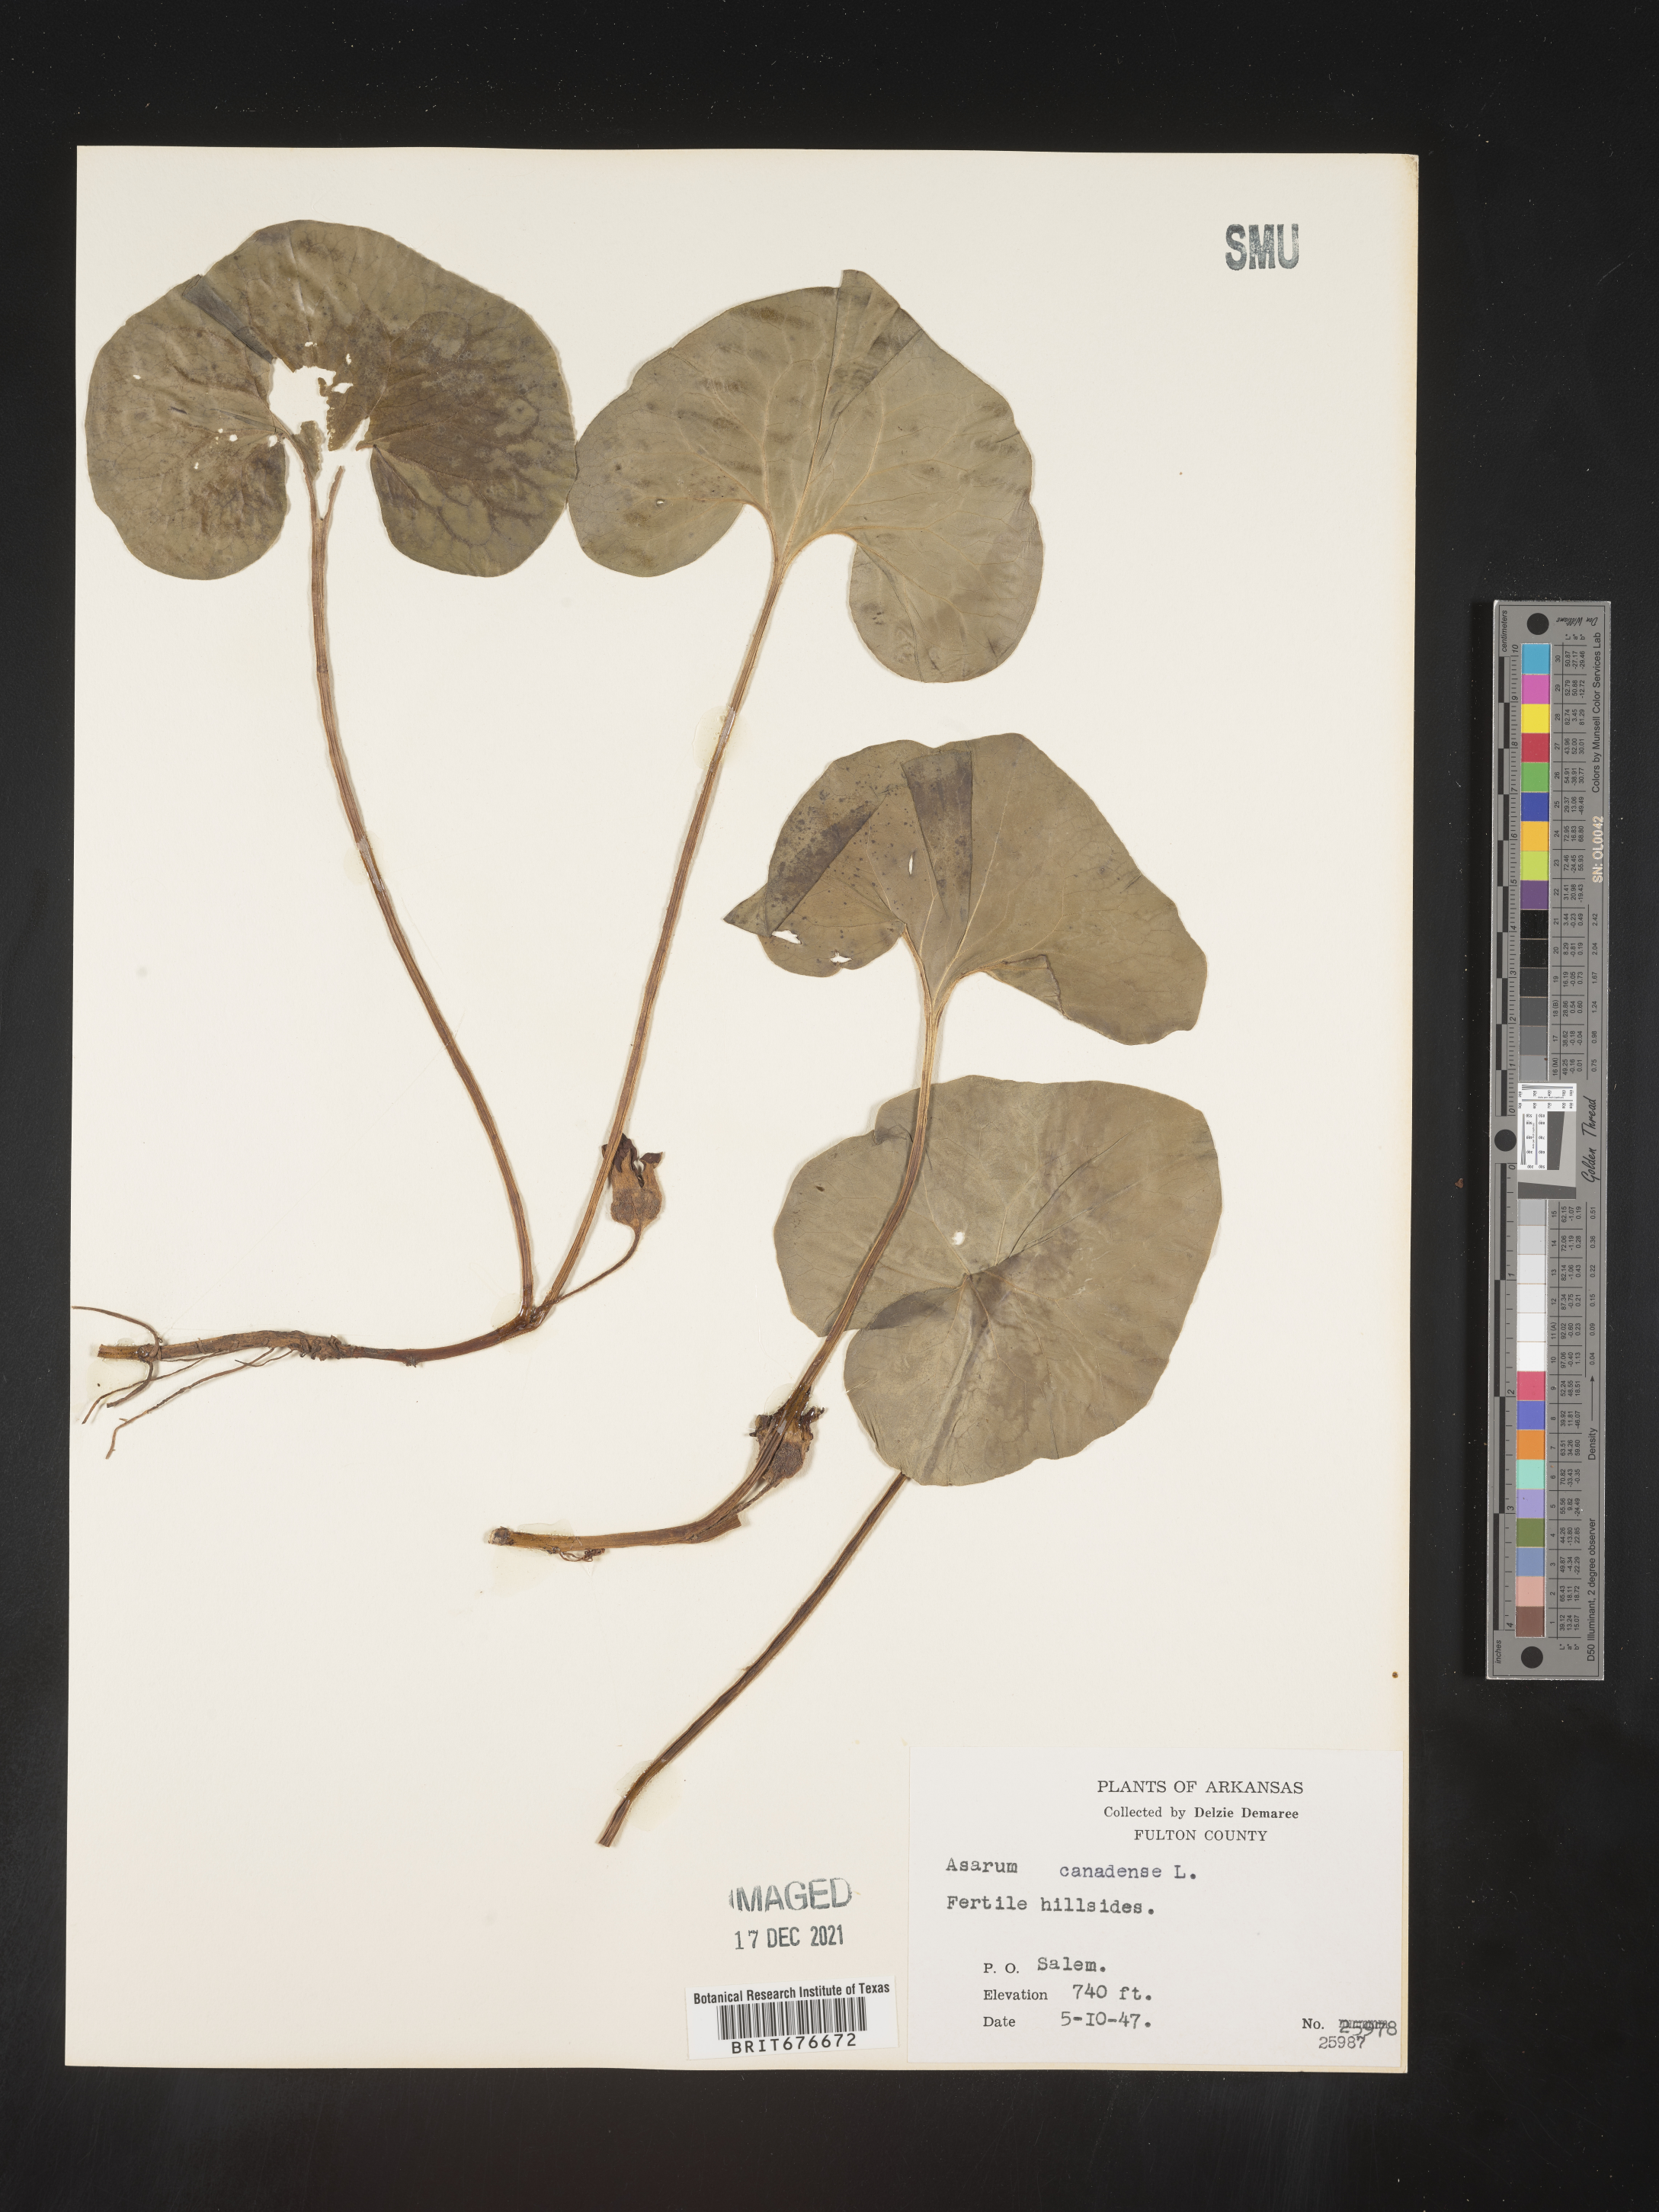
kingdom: Plantae
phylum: Tracheophyta
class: Magnoliopsida
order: Piperales
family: Aristolochiaceae
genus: Asarum
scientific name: Asarum canadense
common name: Wild ginger
